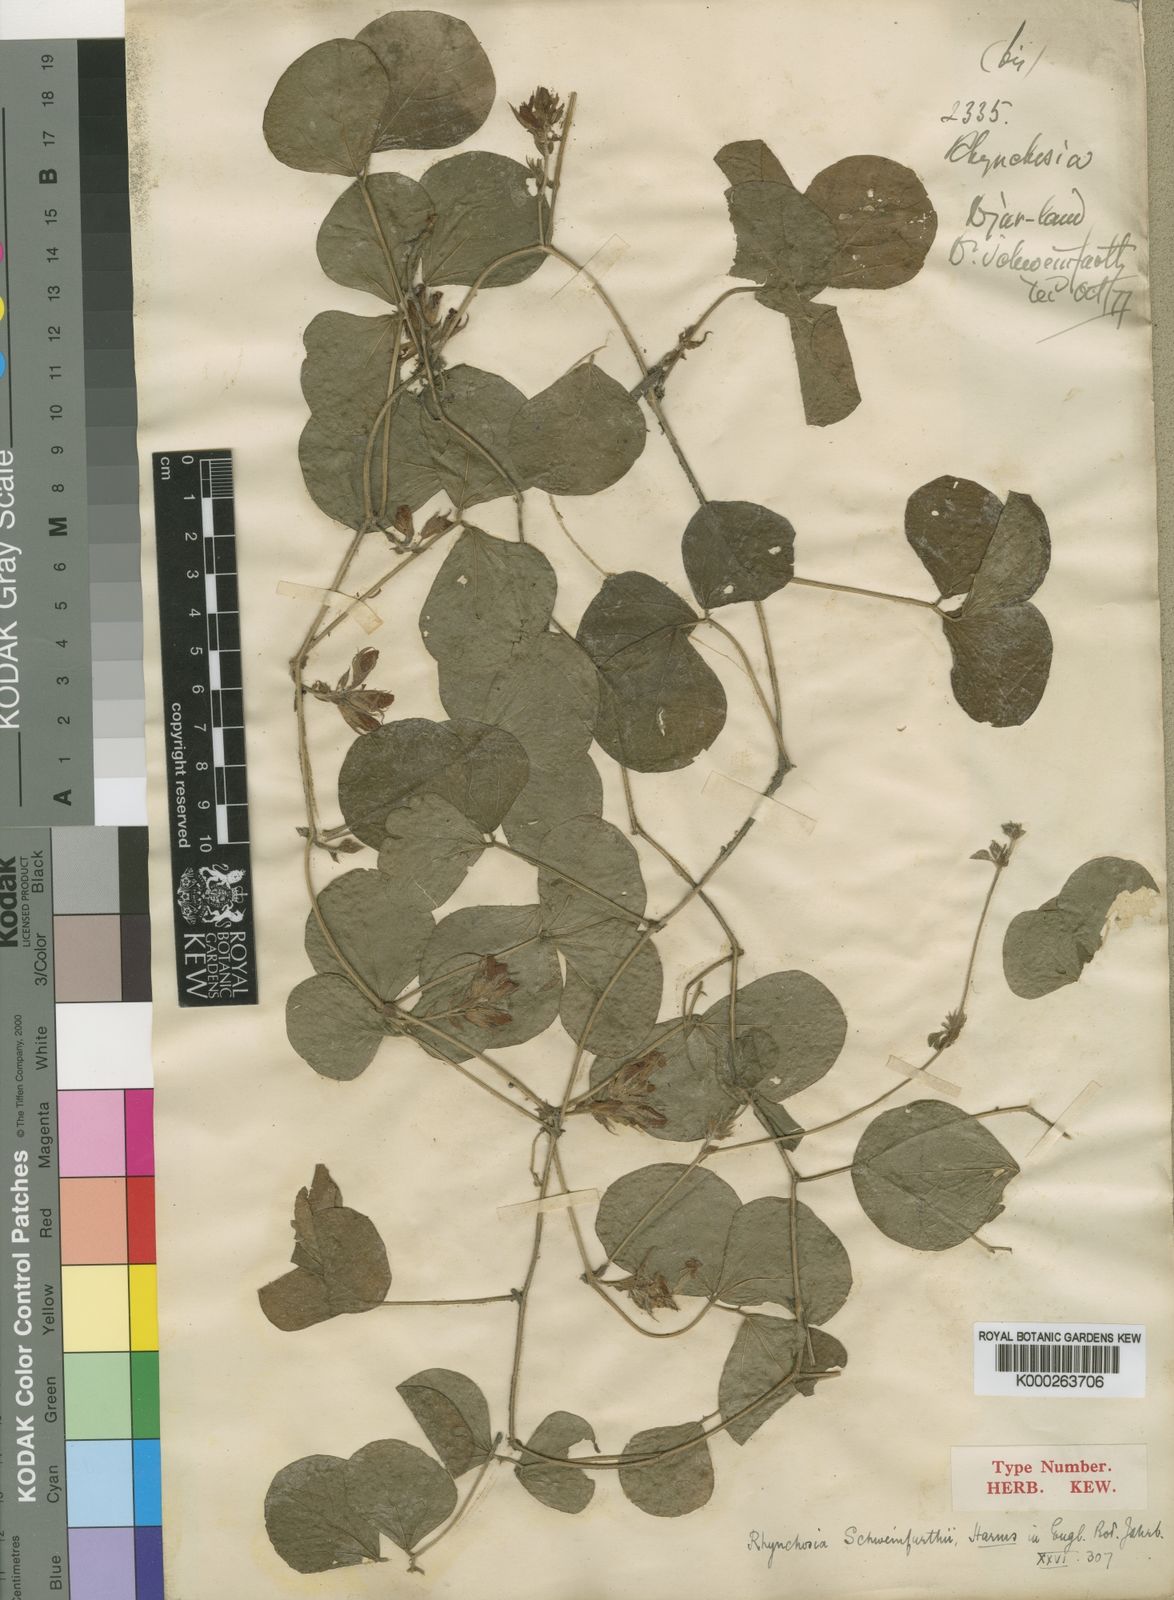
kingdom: Plantae
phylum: Tracheophyta
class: Magnoliopsida
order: Fabales
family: Fabaceae
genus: Rhynchosia
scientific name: Rhynchosia densiflora
